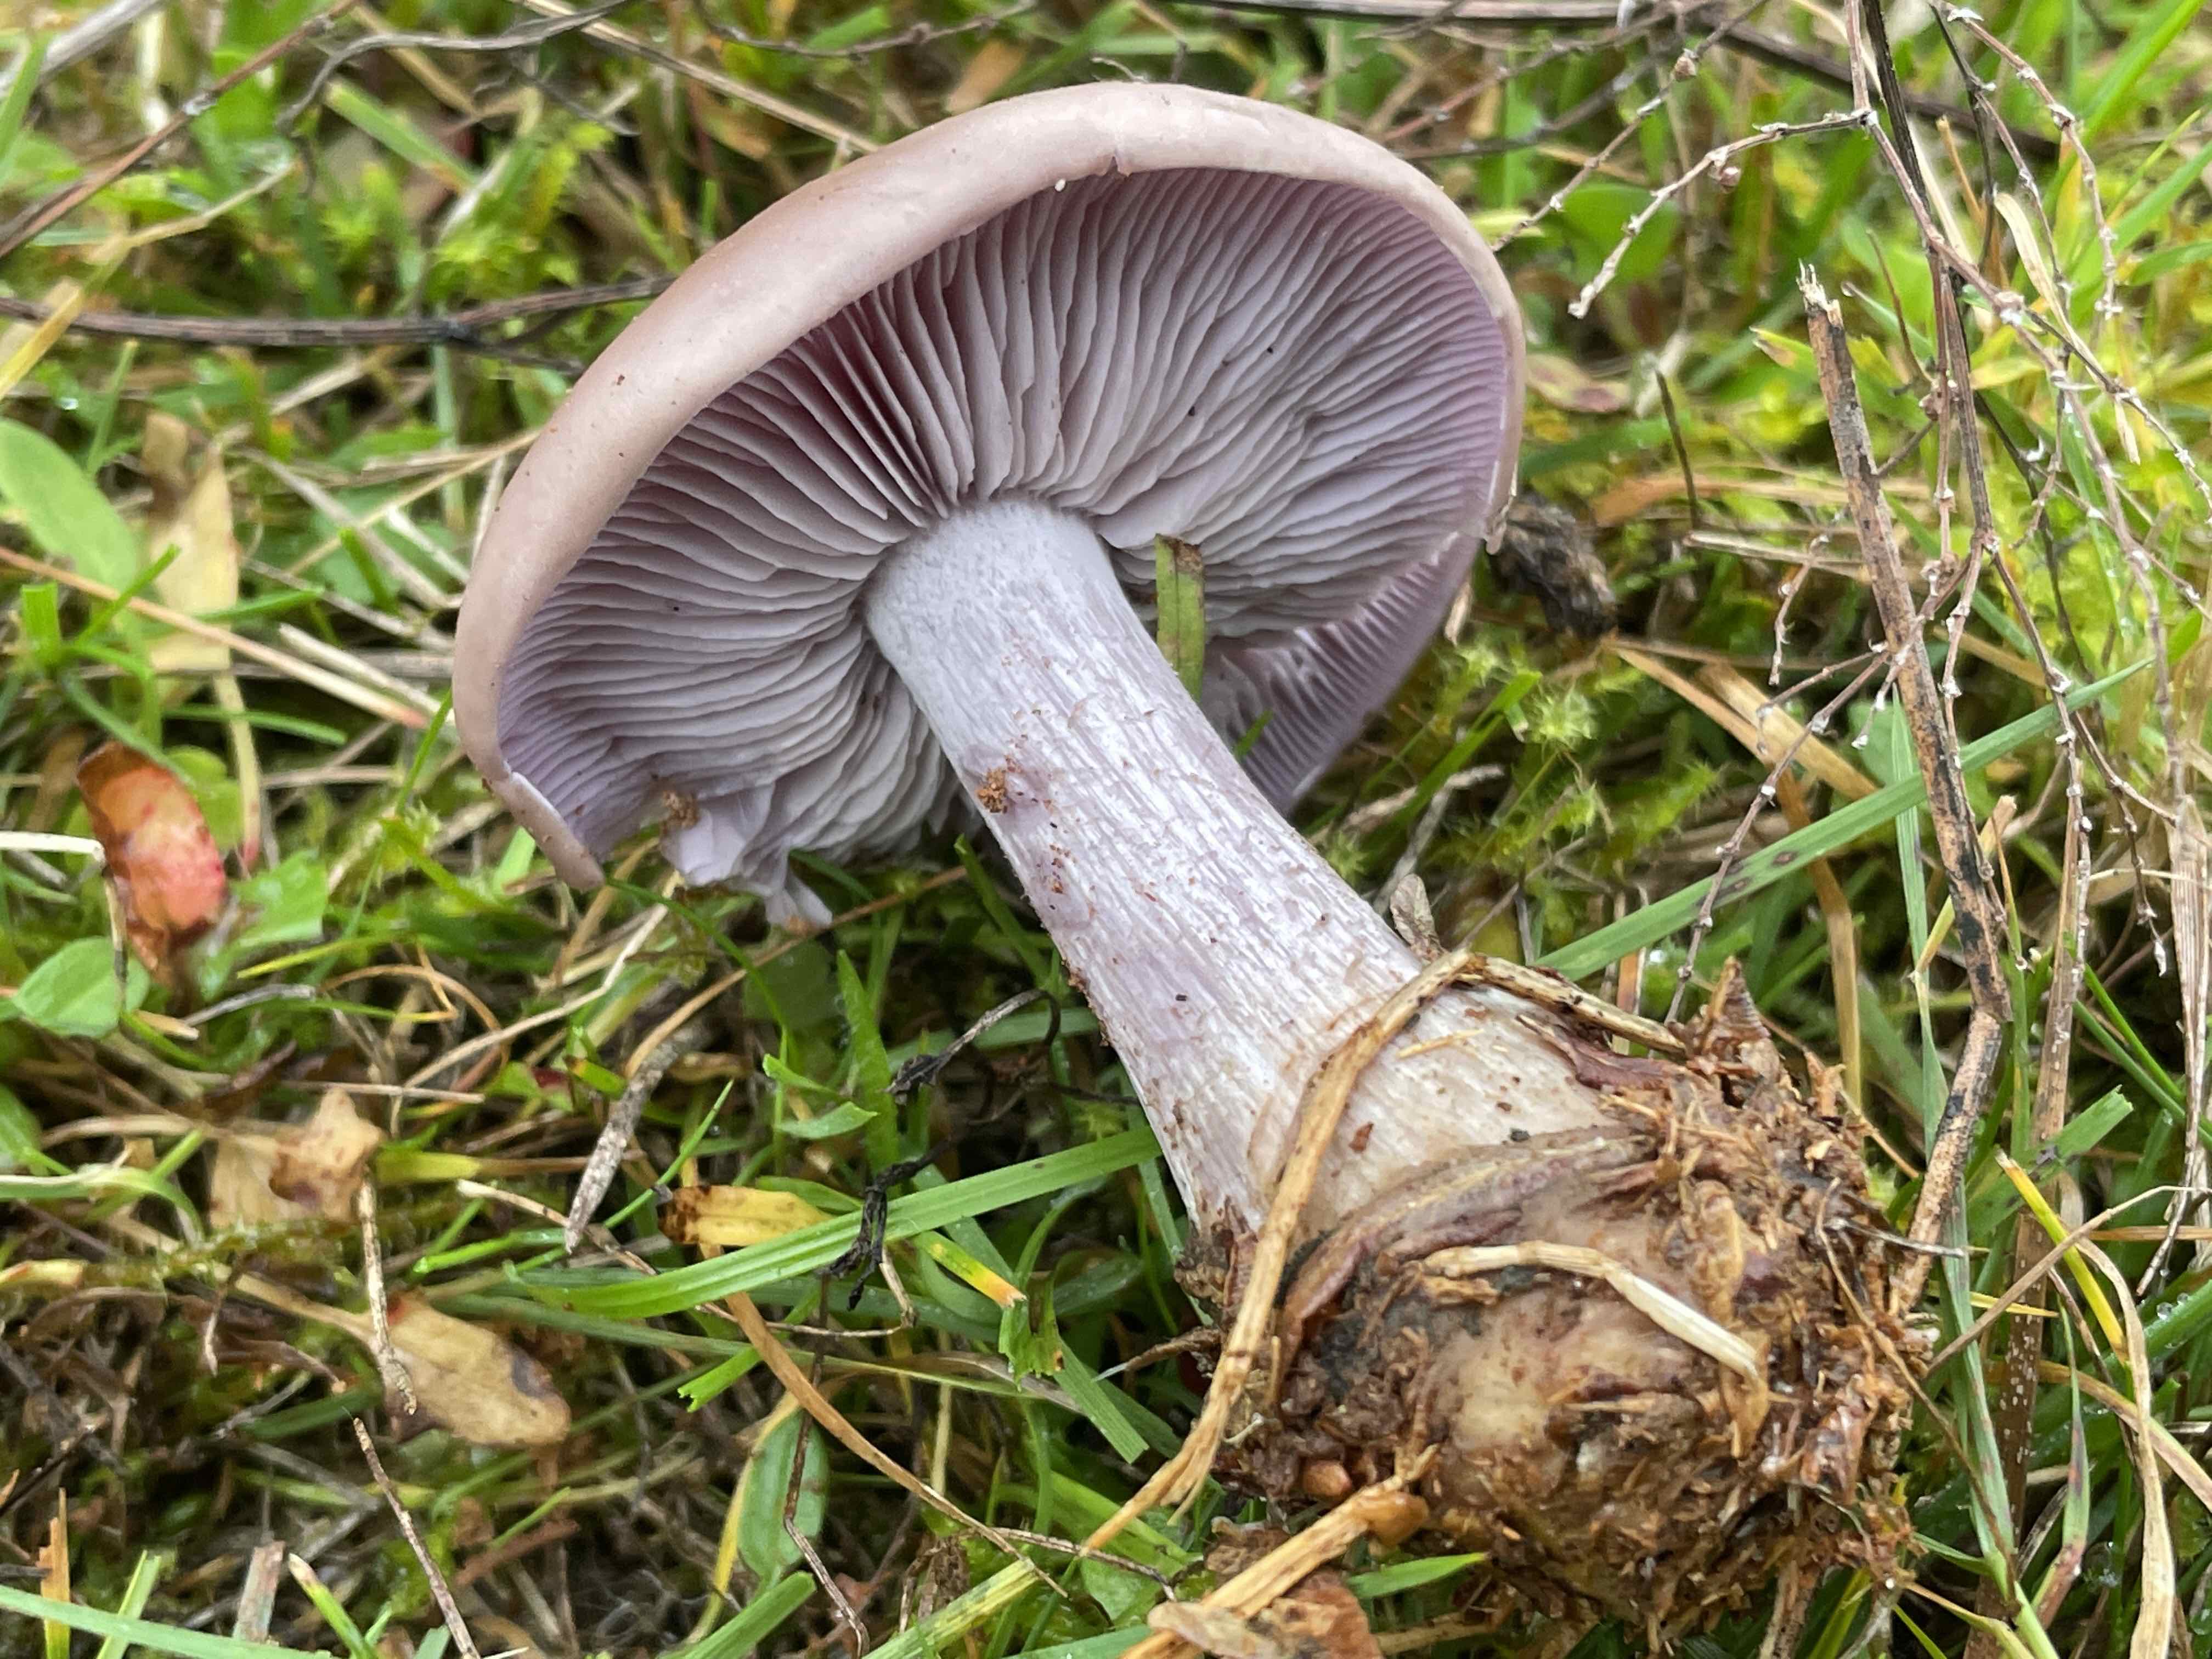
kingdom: Fungi
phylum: Basidiomycota
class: Agaricomycetes
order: Agaricales
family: Tricholomataceae
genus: Lepista
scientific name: Lepista nuda
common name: violet hekseringshat
